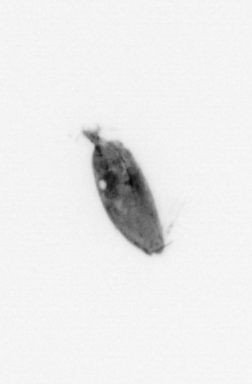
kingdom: Animalia
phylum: Arthropoda
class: Maxillopoda
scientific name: Maxillopoda
